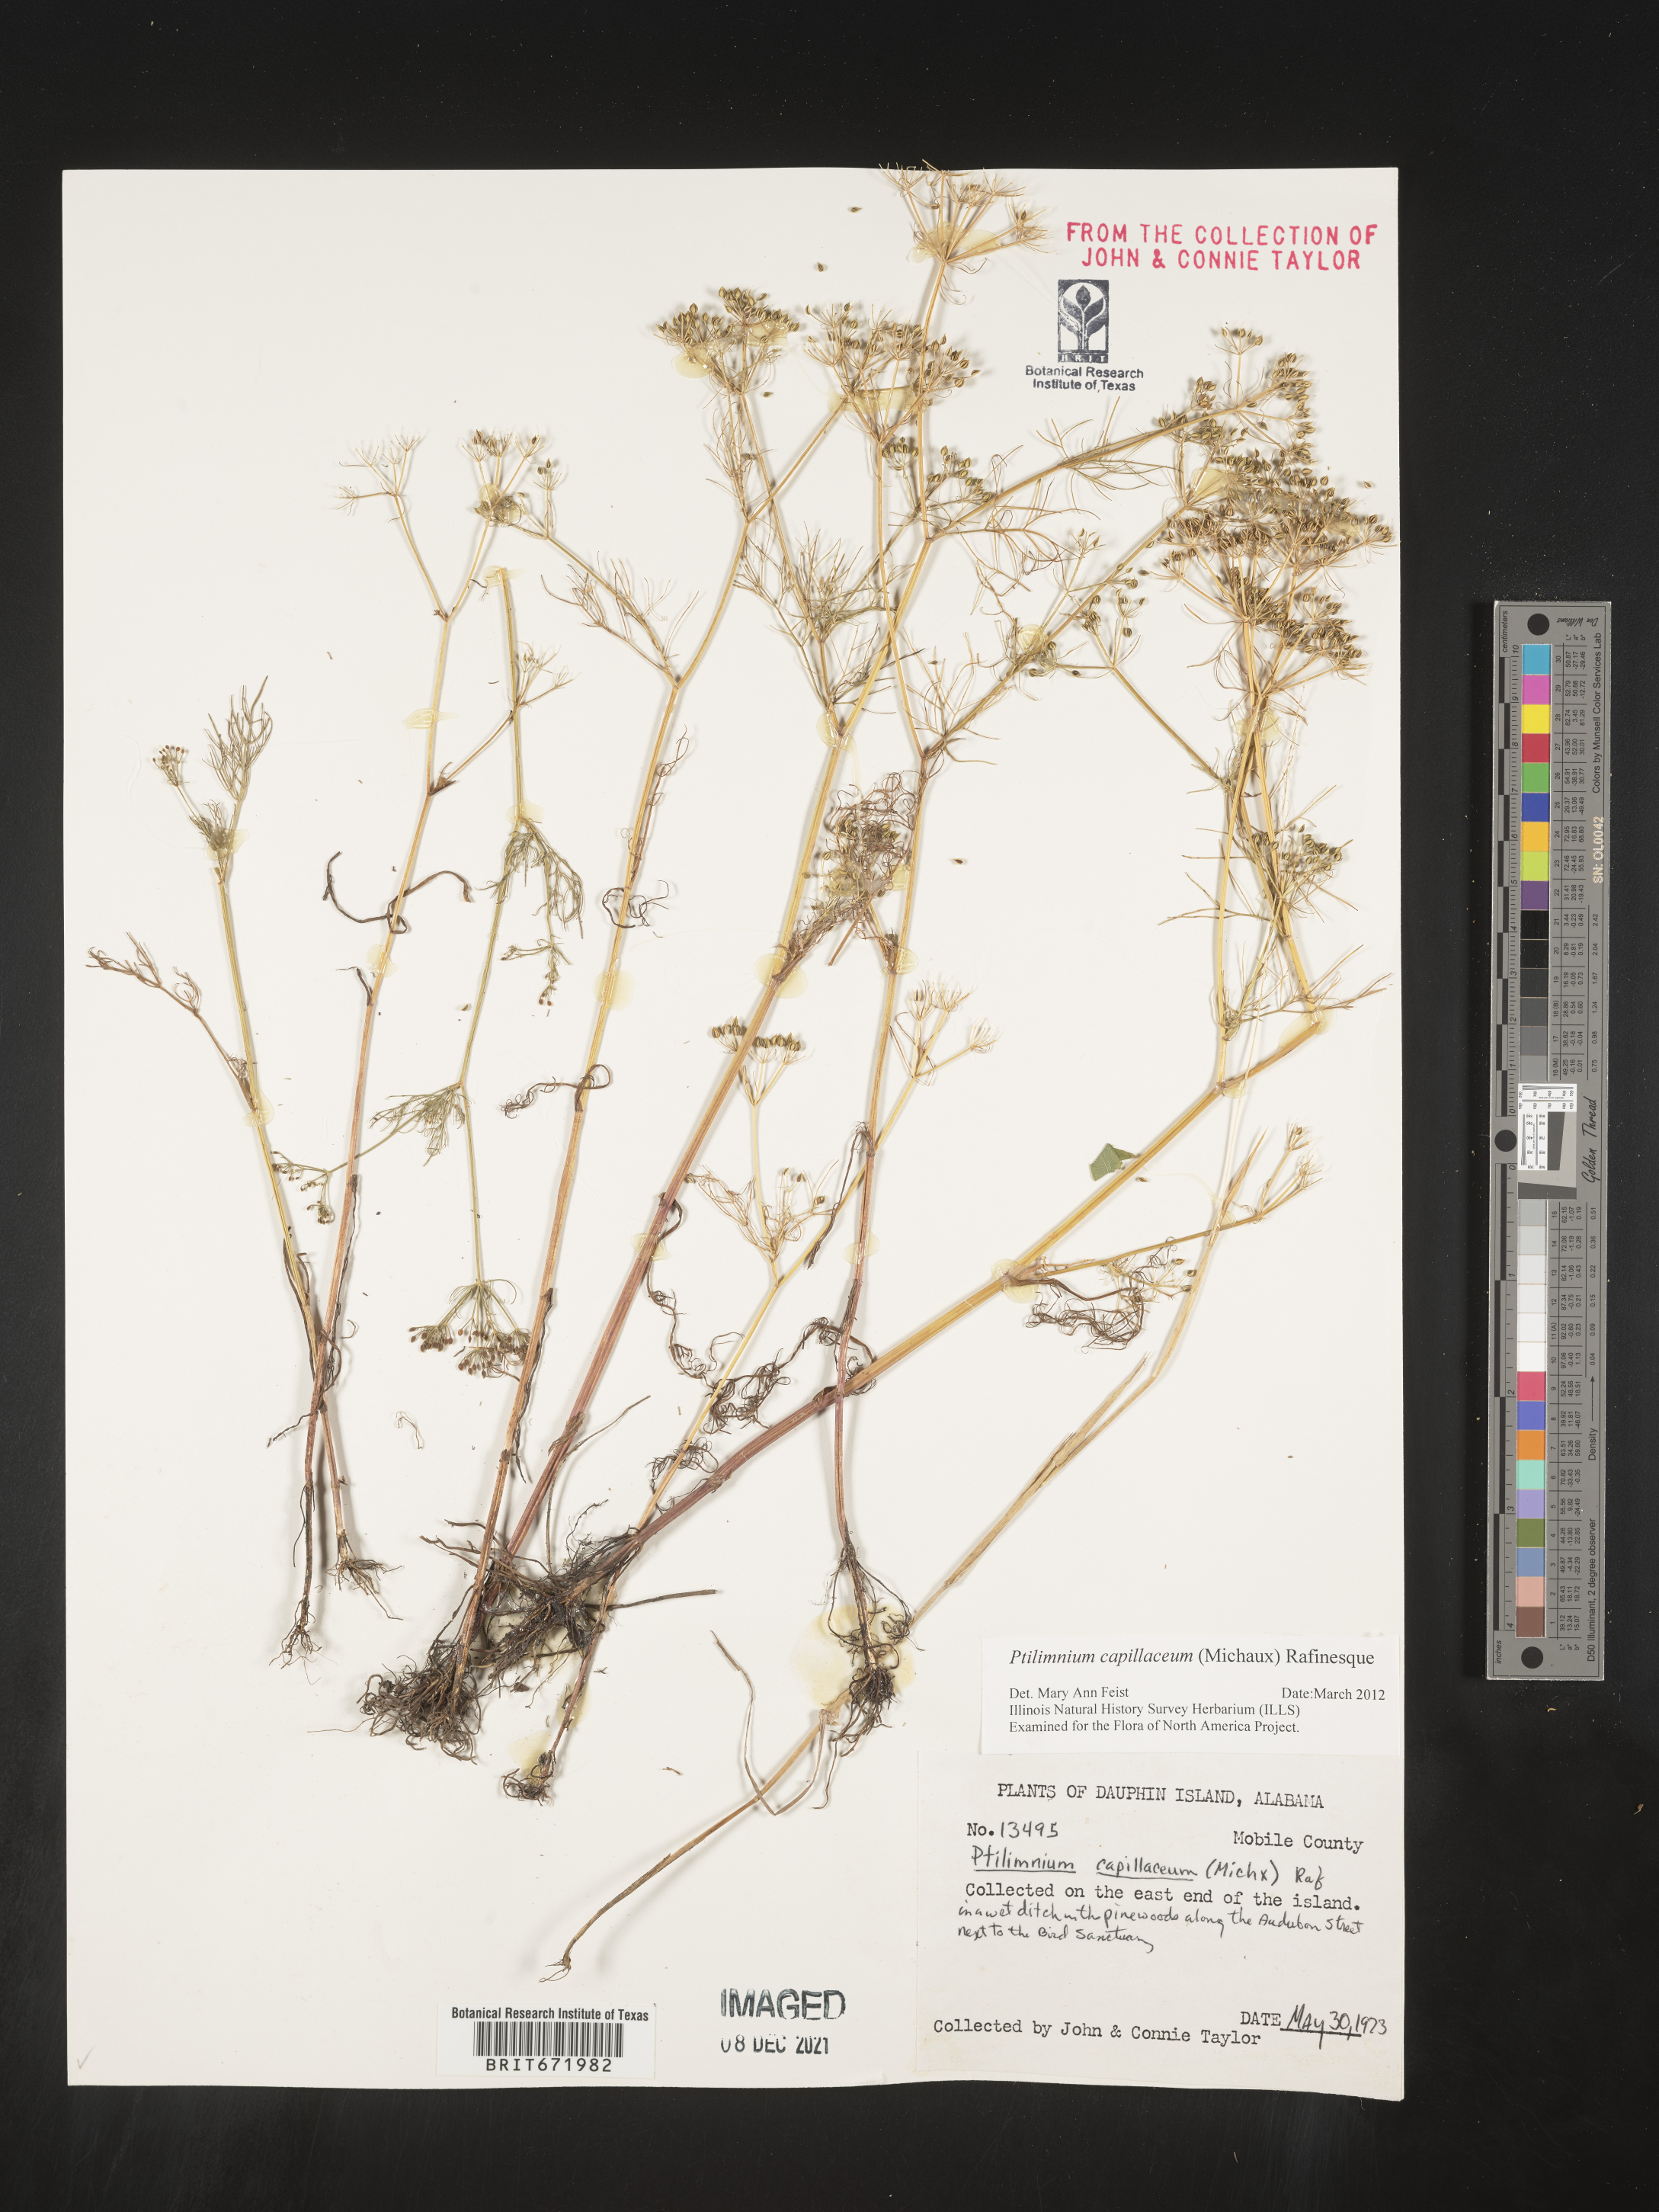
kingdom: Plantae
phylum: Tracheophyta
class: Magnoliopsida
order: Apiales
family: Apiaceae
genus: Ptilimnium
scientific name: Ptilimnium capillaceum
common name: Herbwilliam
